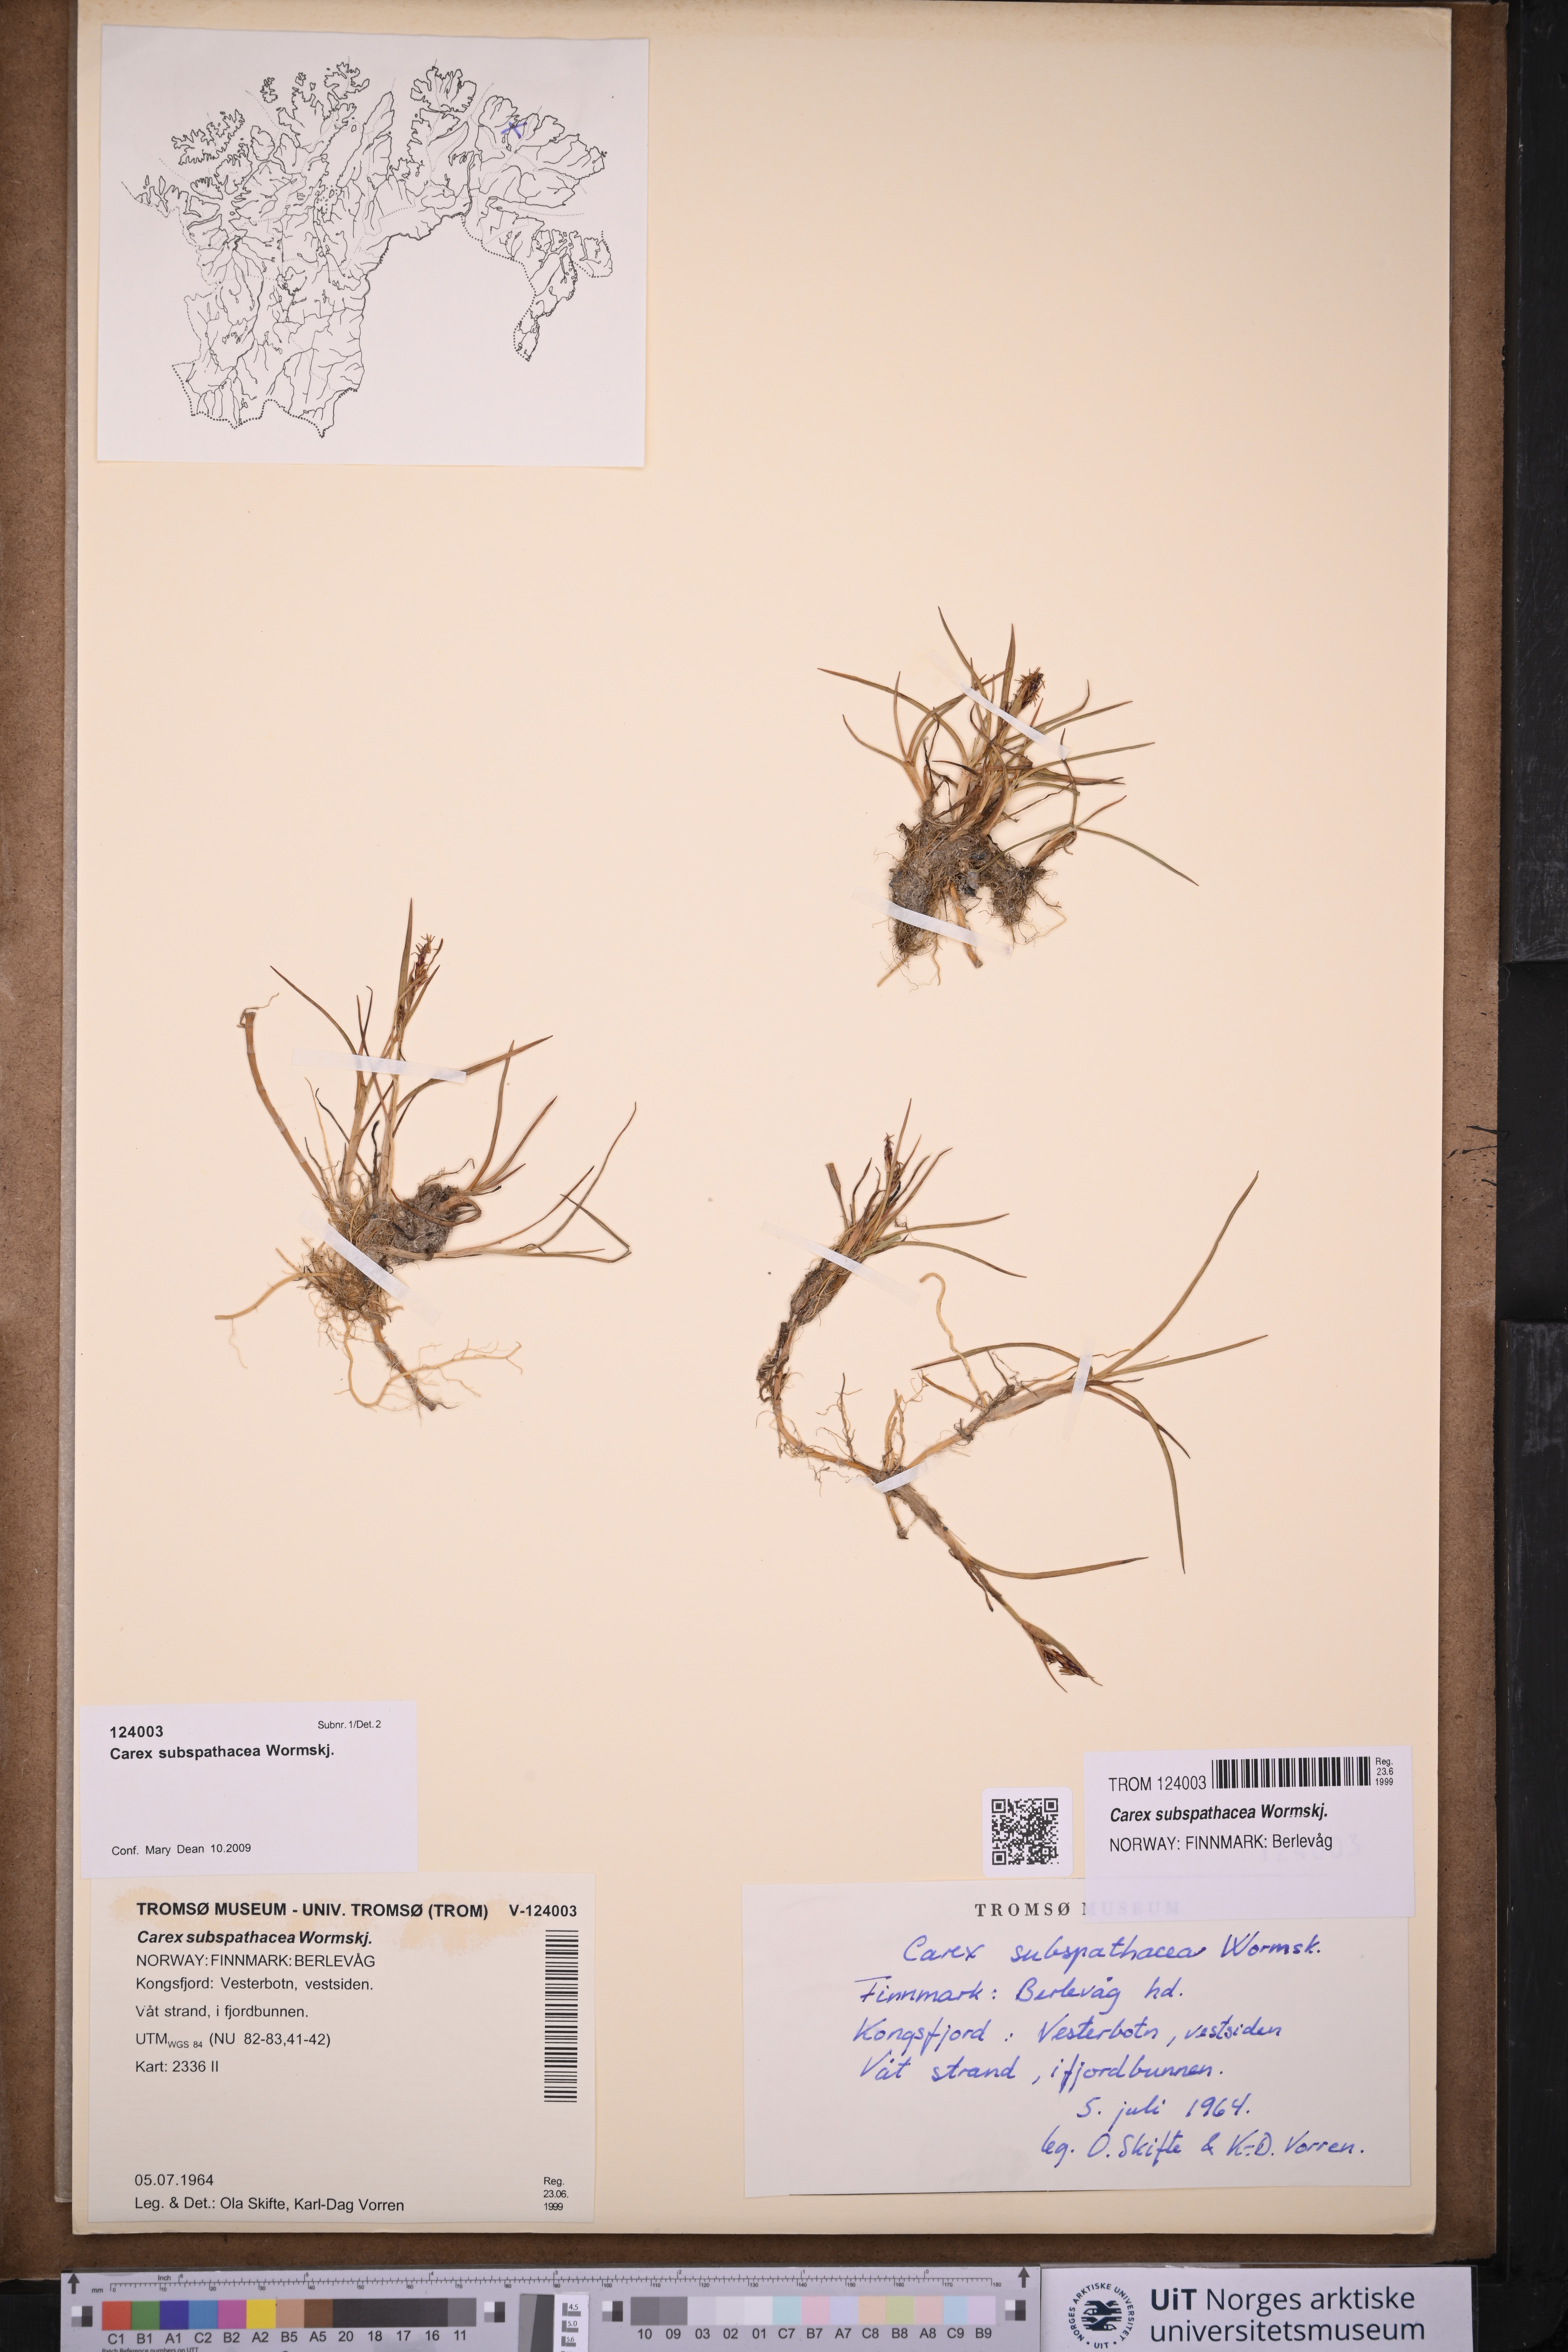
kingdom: Plantae
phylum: Tracheophyta
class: Liliopsida
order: Poales
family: Cyperaceae
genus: Carex
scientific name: Carex subspathacea
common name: Hoppner's sedge
